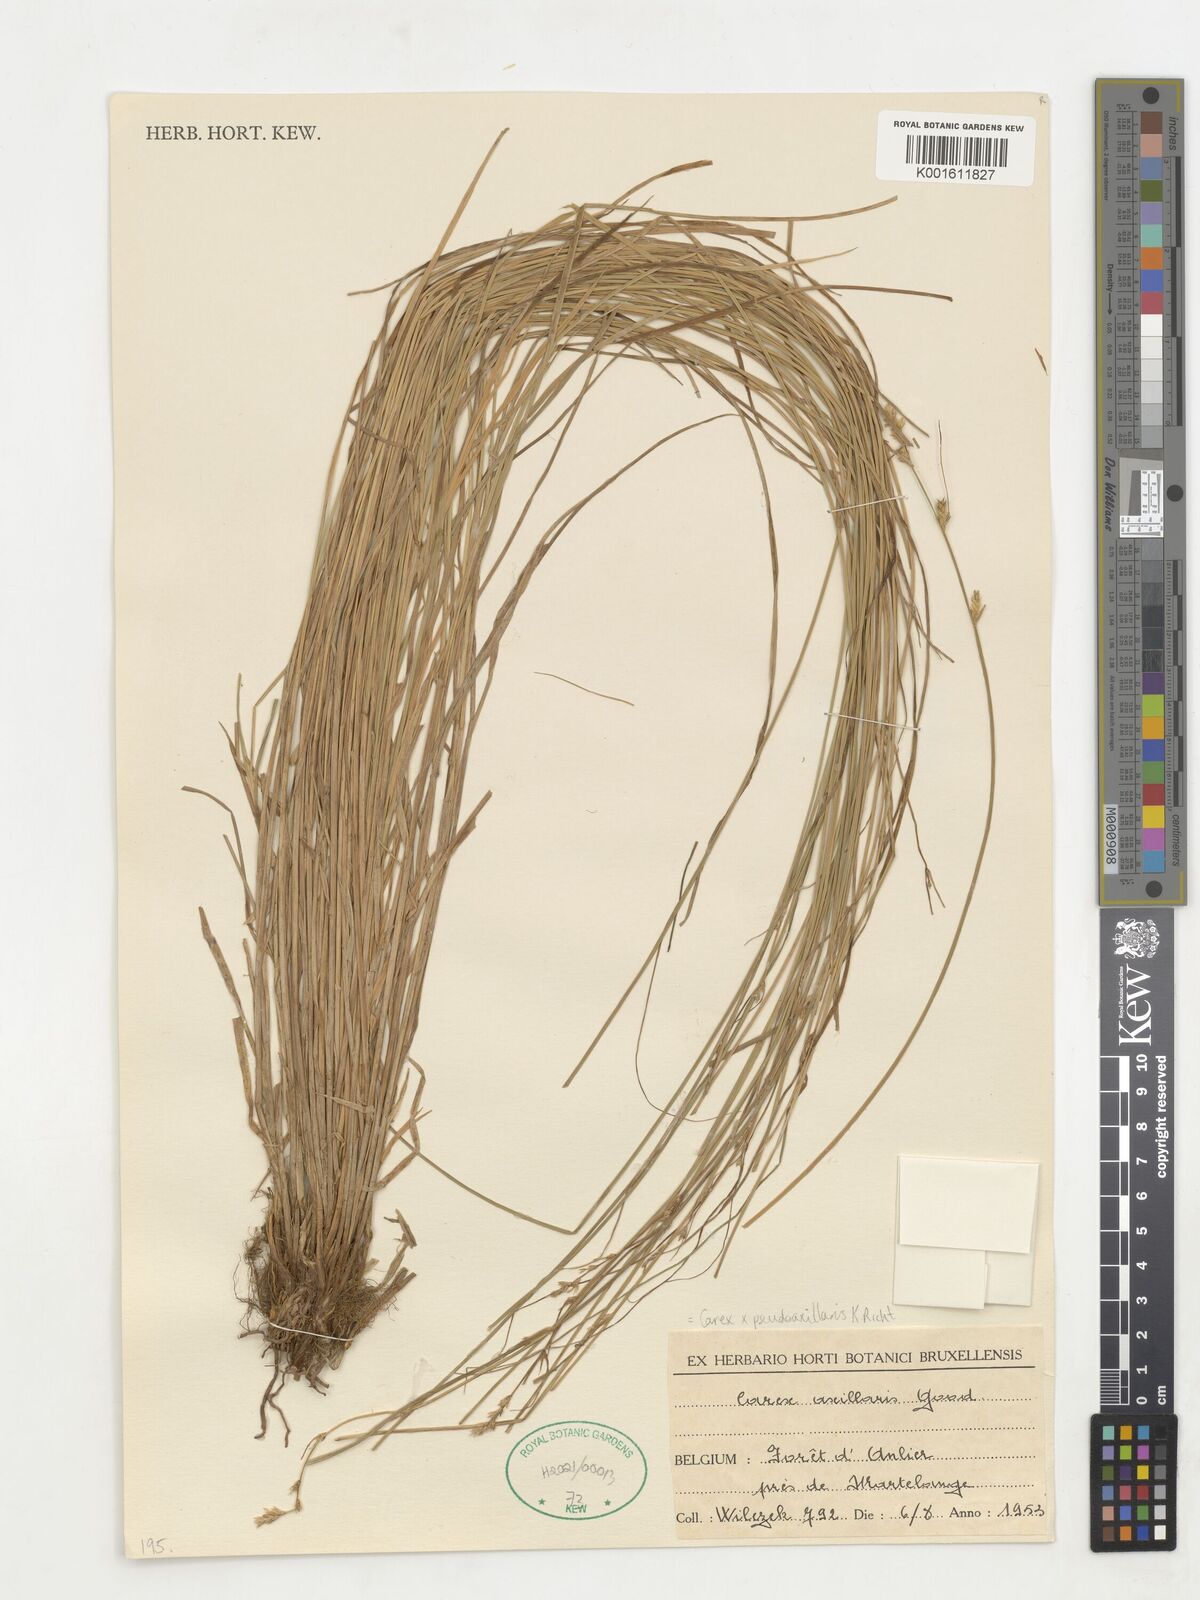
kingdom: Plantae
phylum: Tracheophyta
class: Liliopsida
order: Poales
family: Cyperaceae
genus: Carex
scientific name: Carex pseudoaxillaris
